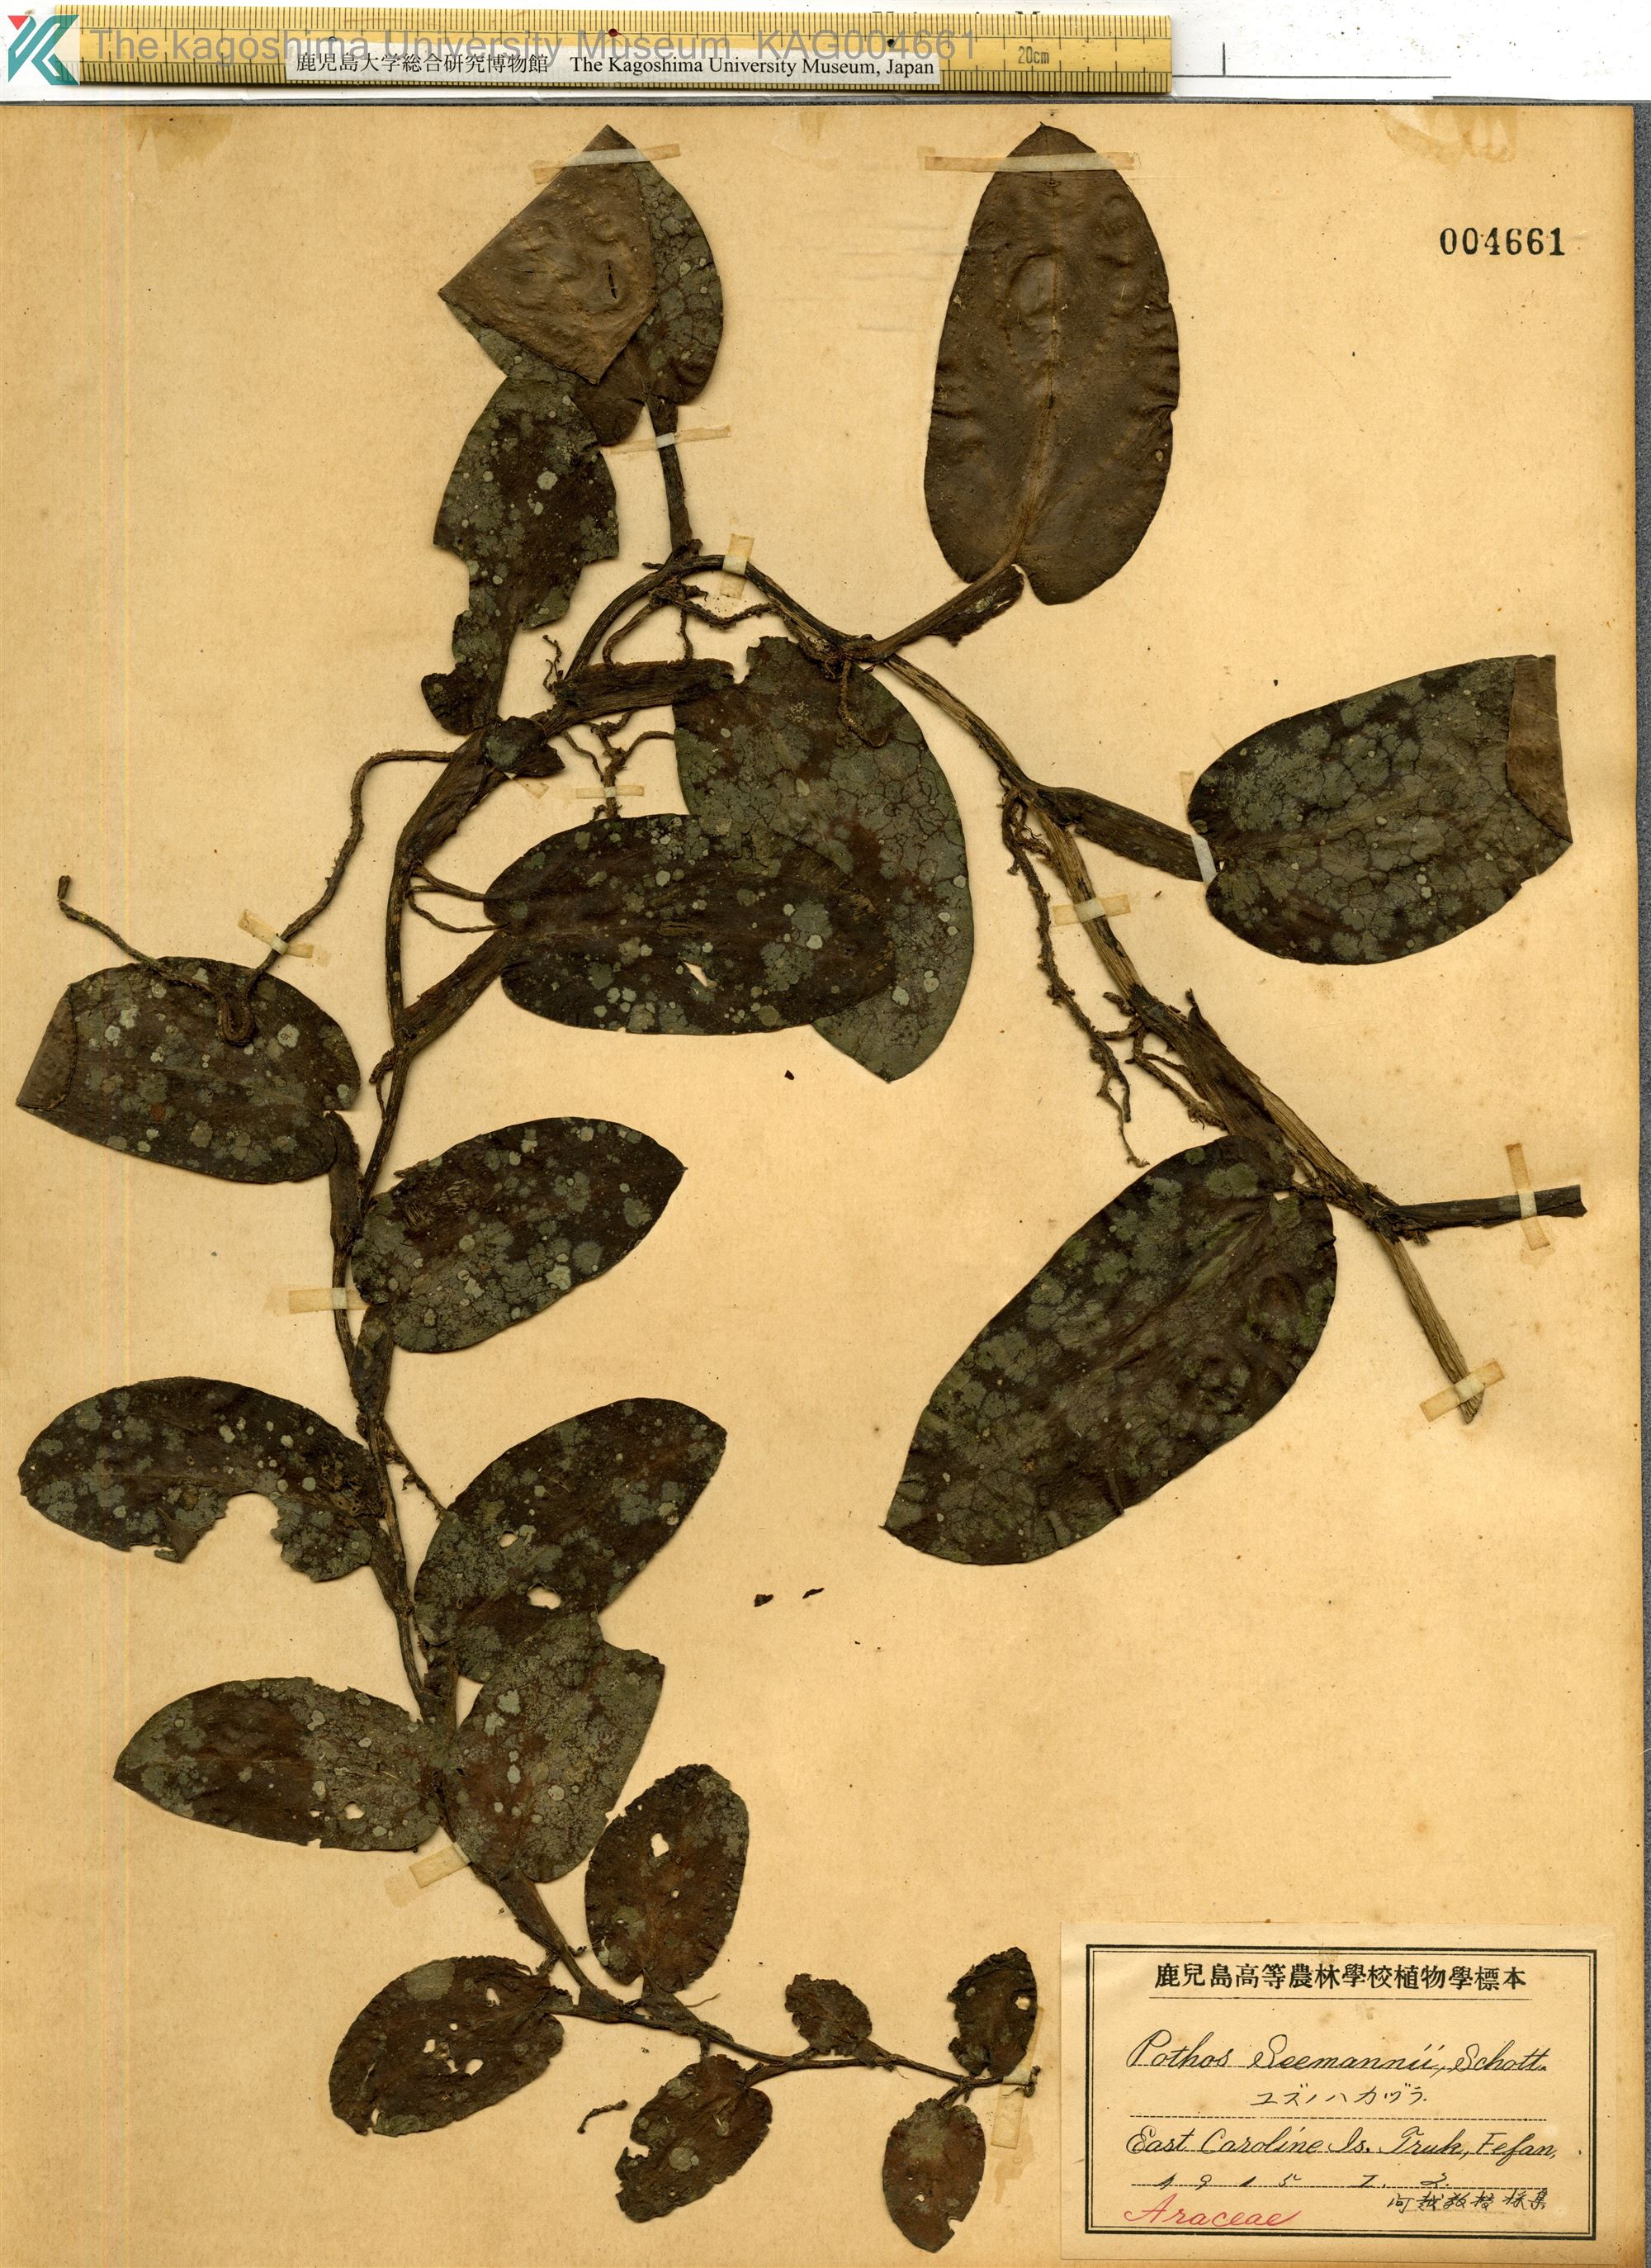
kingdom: Plantae
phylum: Tracheophyta
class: Liliopsida
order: Alismatales
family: Araceae
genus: Pothos
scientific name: Pothos chinensis
